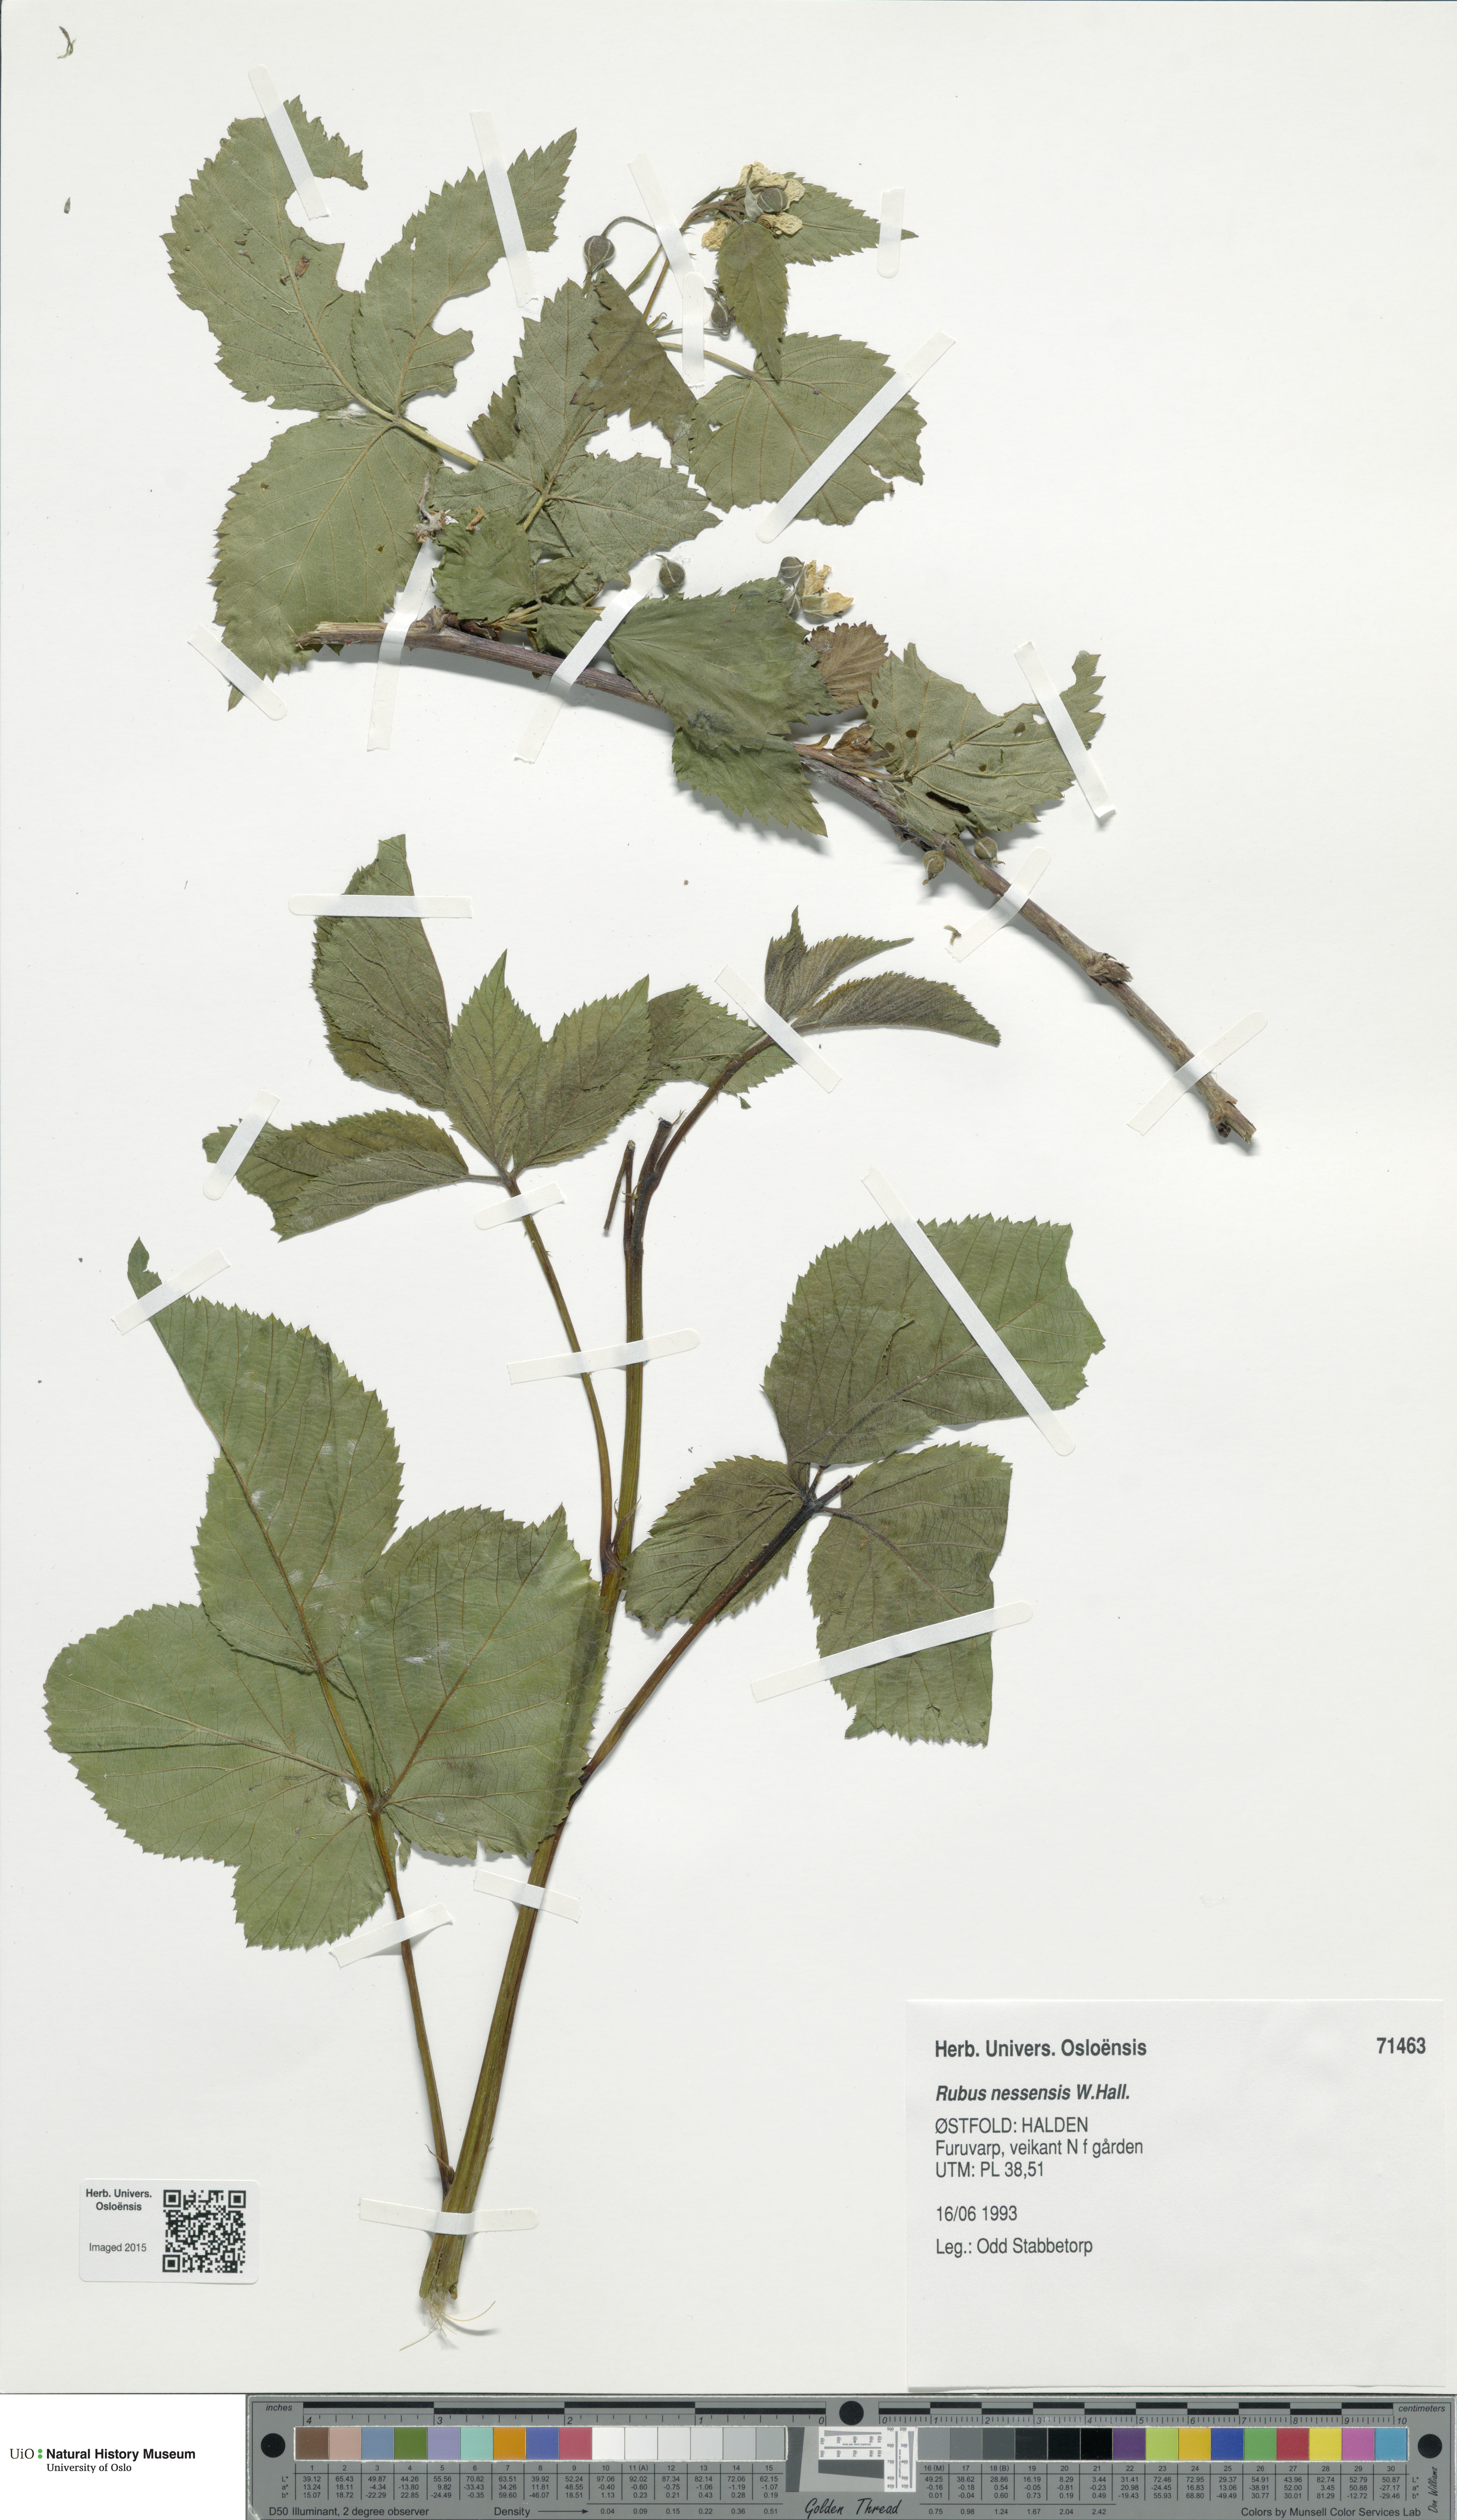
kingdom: Plantae
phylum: Tracheophyta
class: Magnoliopsida
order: Rosales
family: Rosaceae
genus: Rubus
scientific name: Rubus polonicus
